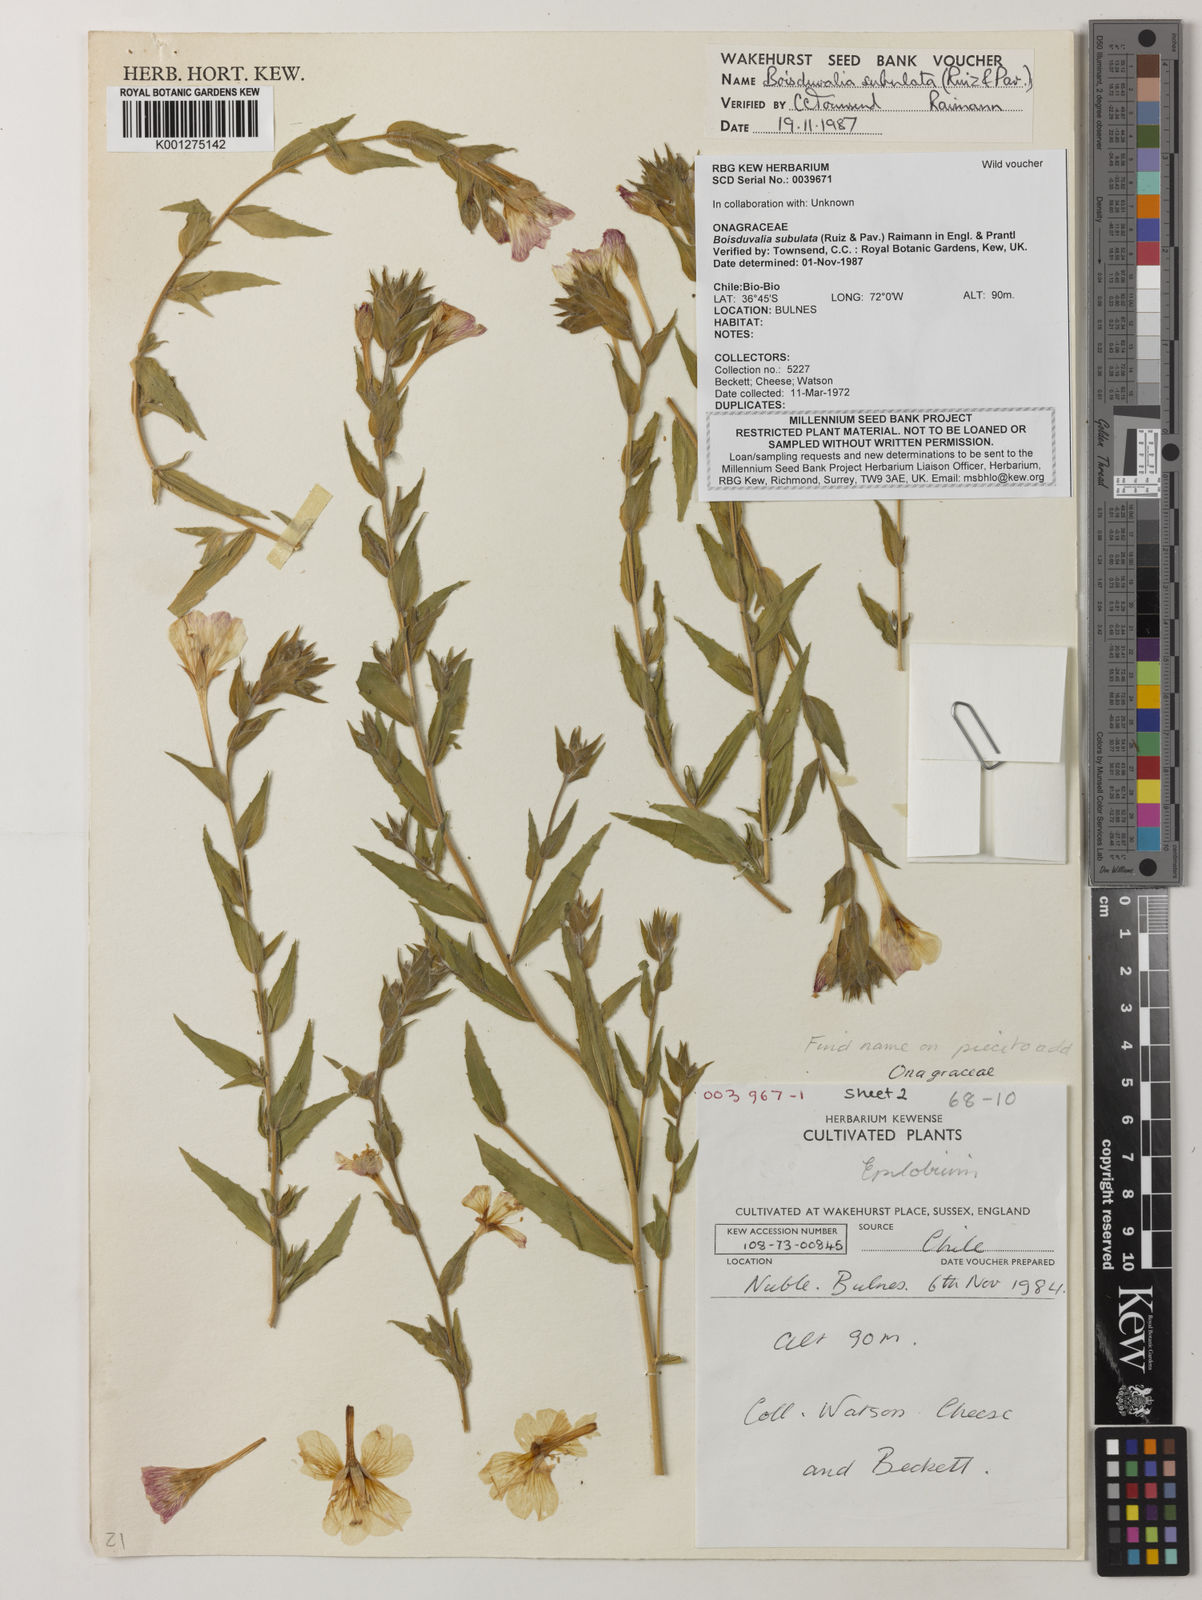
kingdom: Plantae
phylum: Tracheophyta
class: Magnoliopsida
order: Myrtales
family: Onagraceae
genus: Epilobium
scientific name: Epilobium subdentatum
